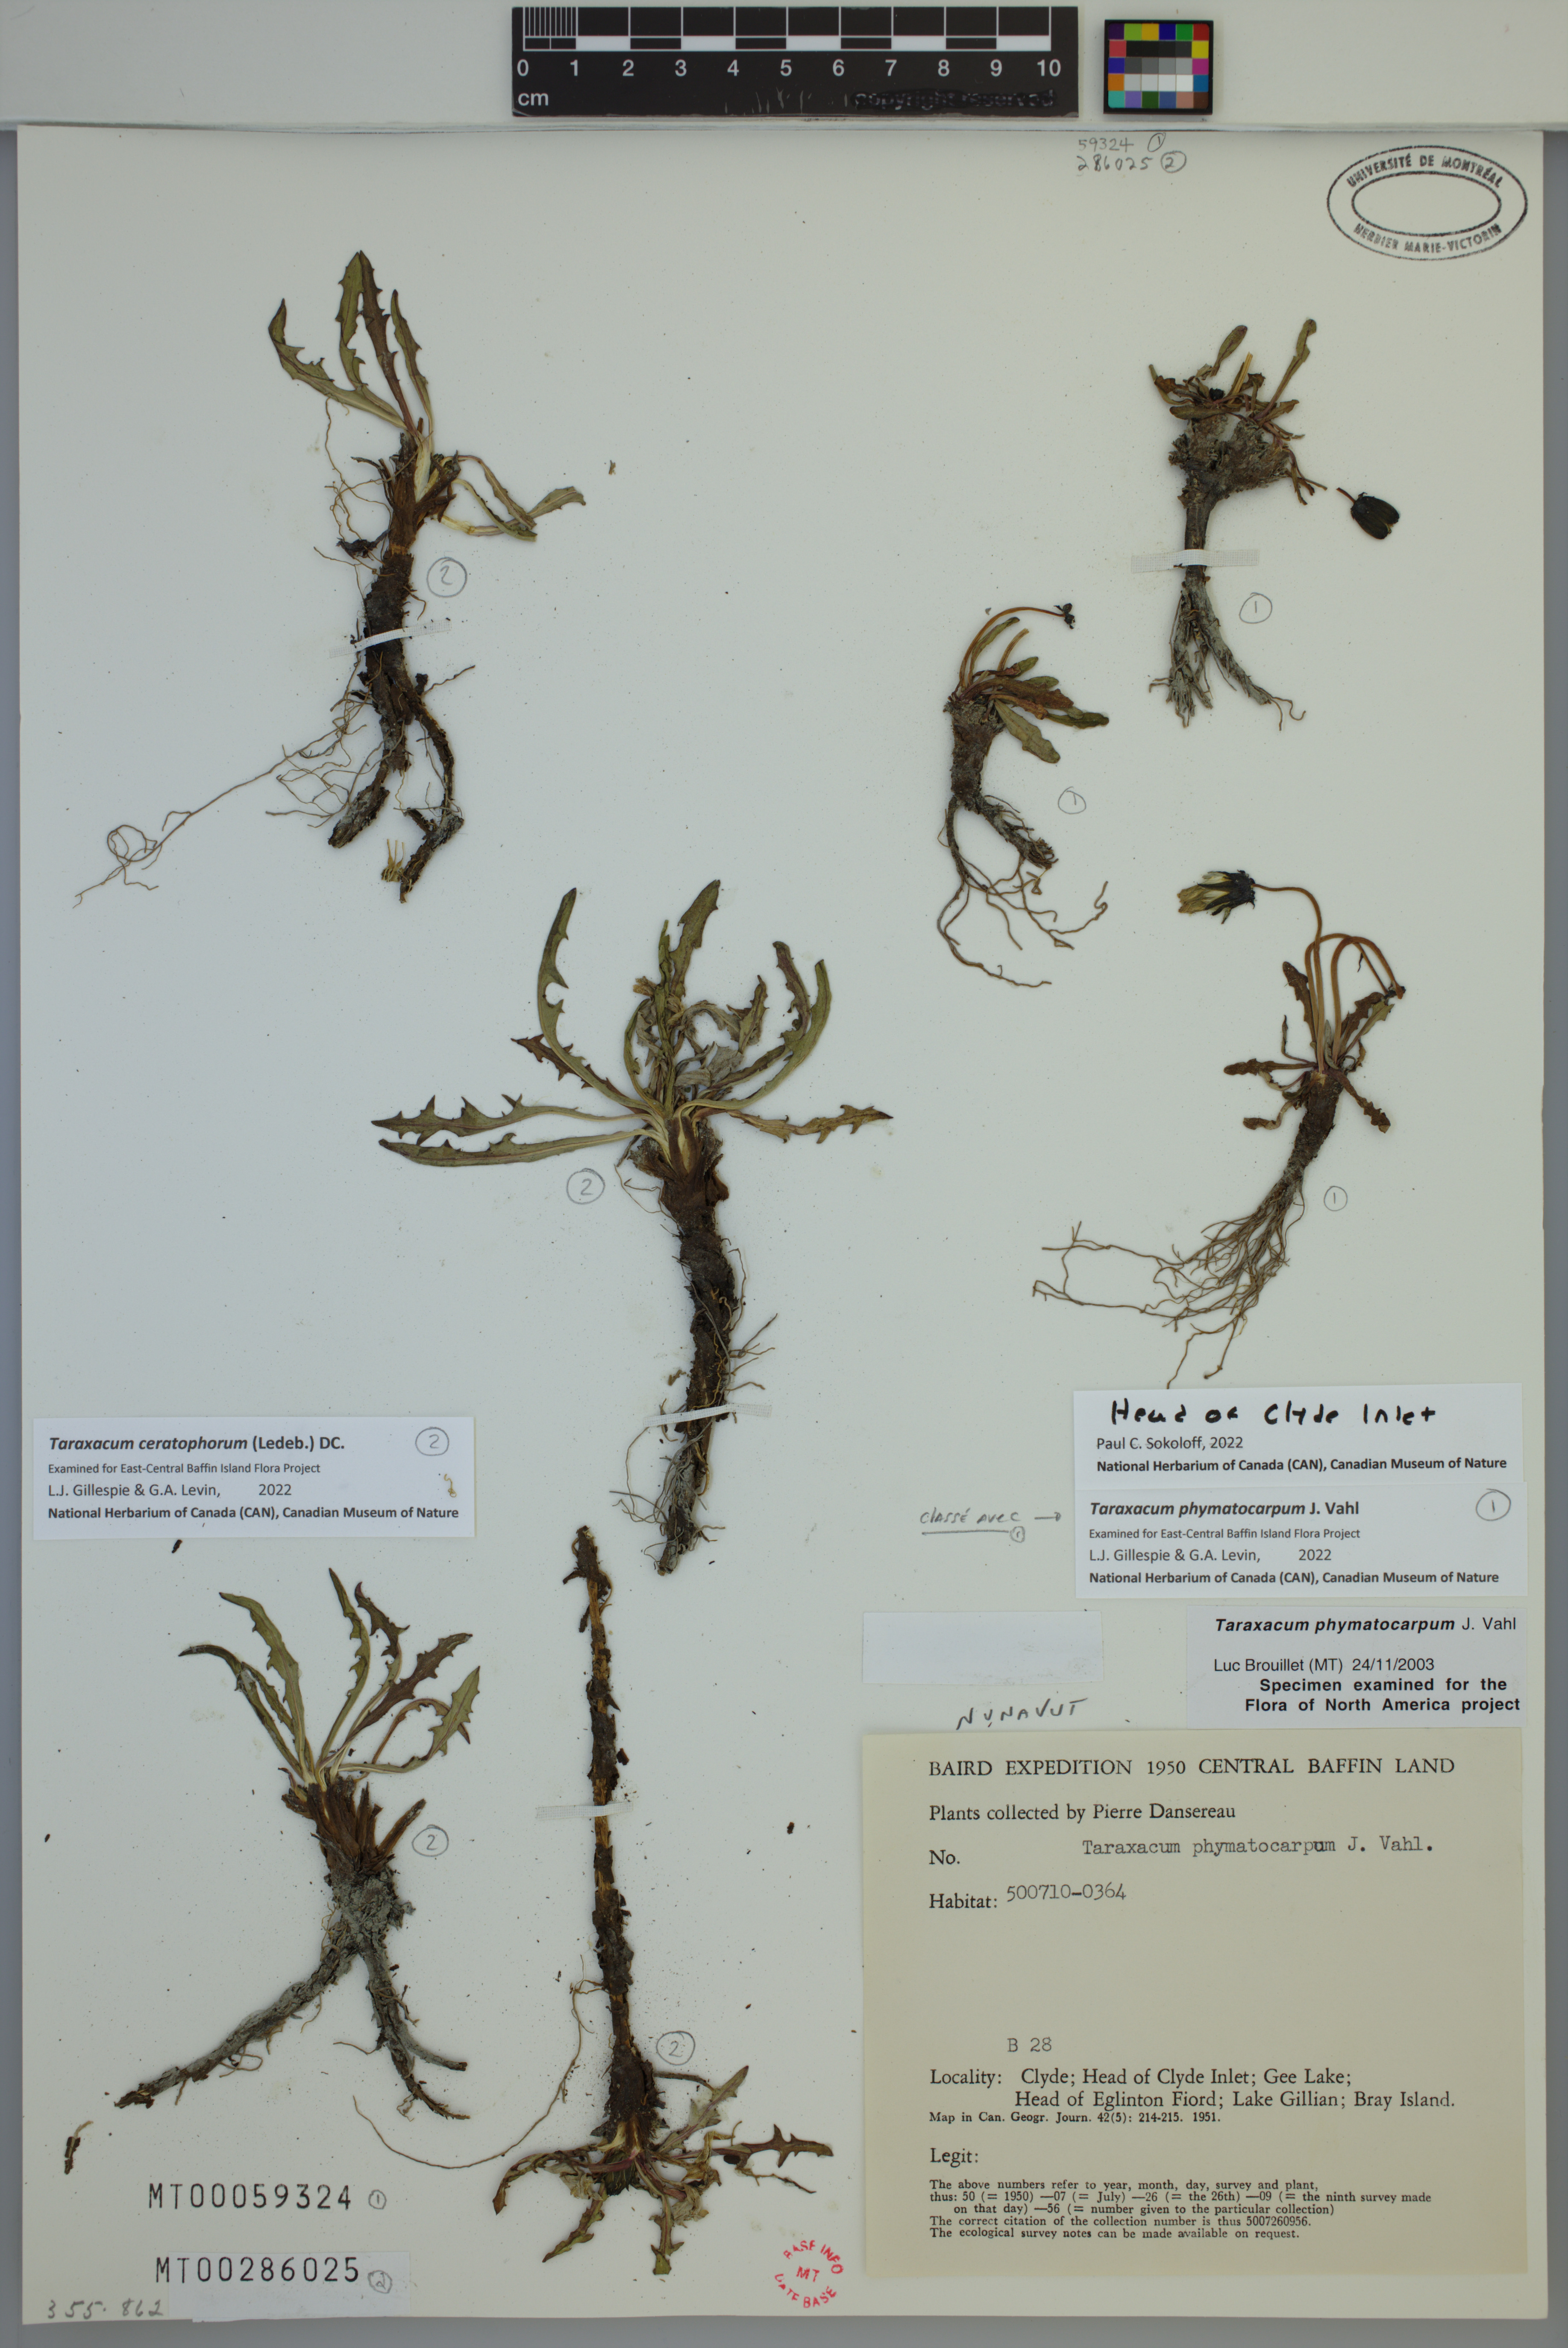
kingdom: Plantae
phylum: Tracheophyta
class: Magnoliopsida
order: Asterales
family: Asteraceae
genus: Taraxacum
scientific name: Taraxacum phymatocarpum
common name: Harp dandelion
